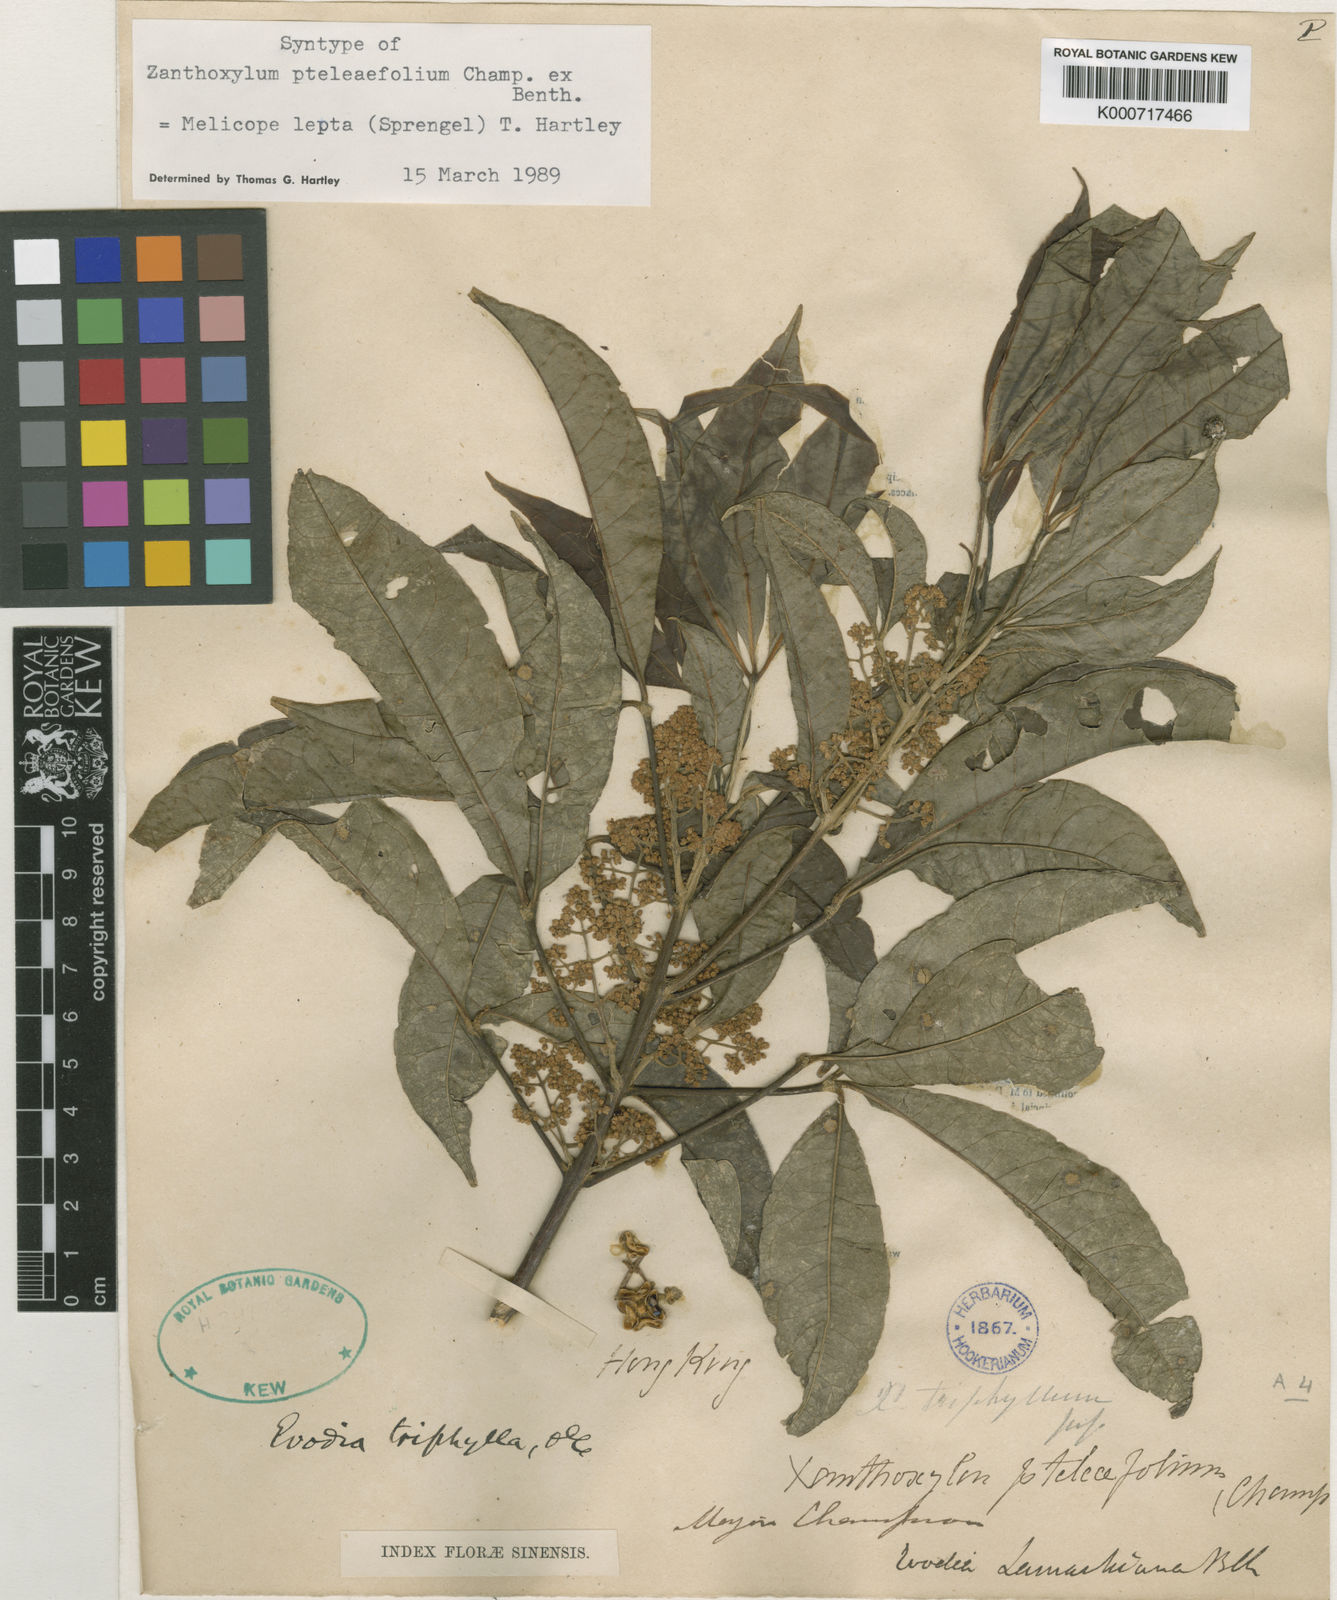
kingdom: Plantae
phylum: Tracheophyta
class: Magnoliopsida
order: Sapindales
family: Rutaceae
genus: Melicope
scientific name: Melicope
